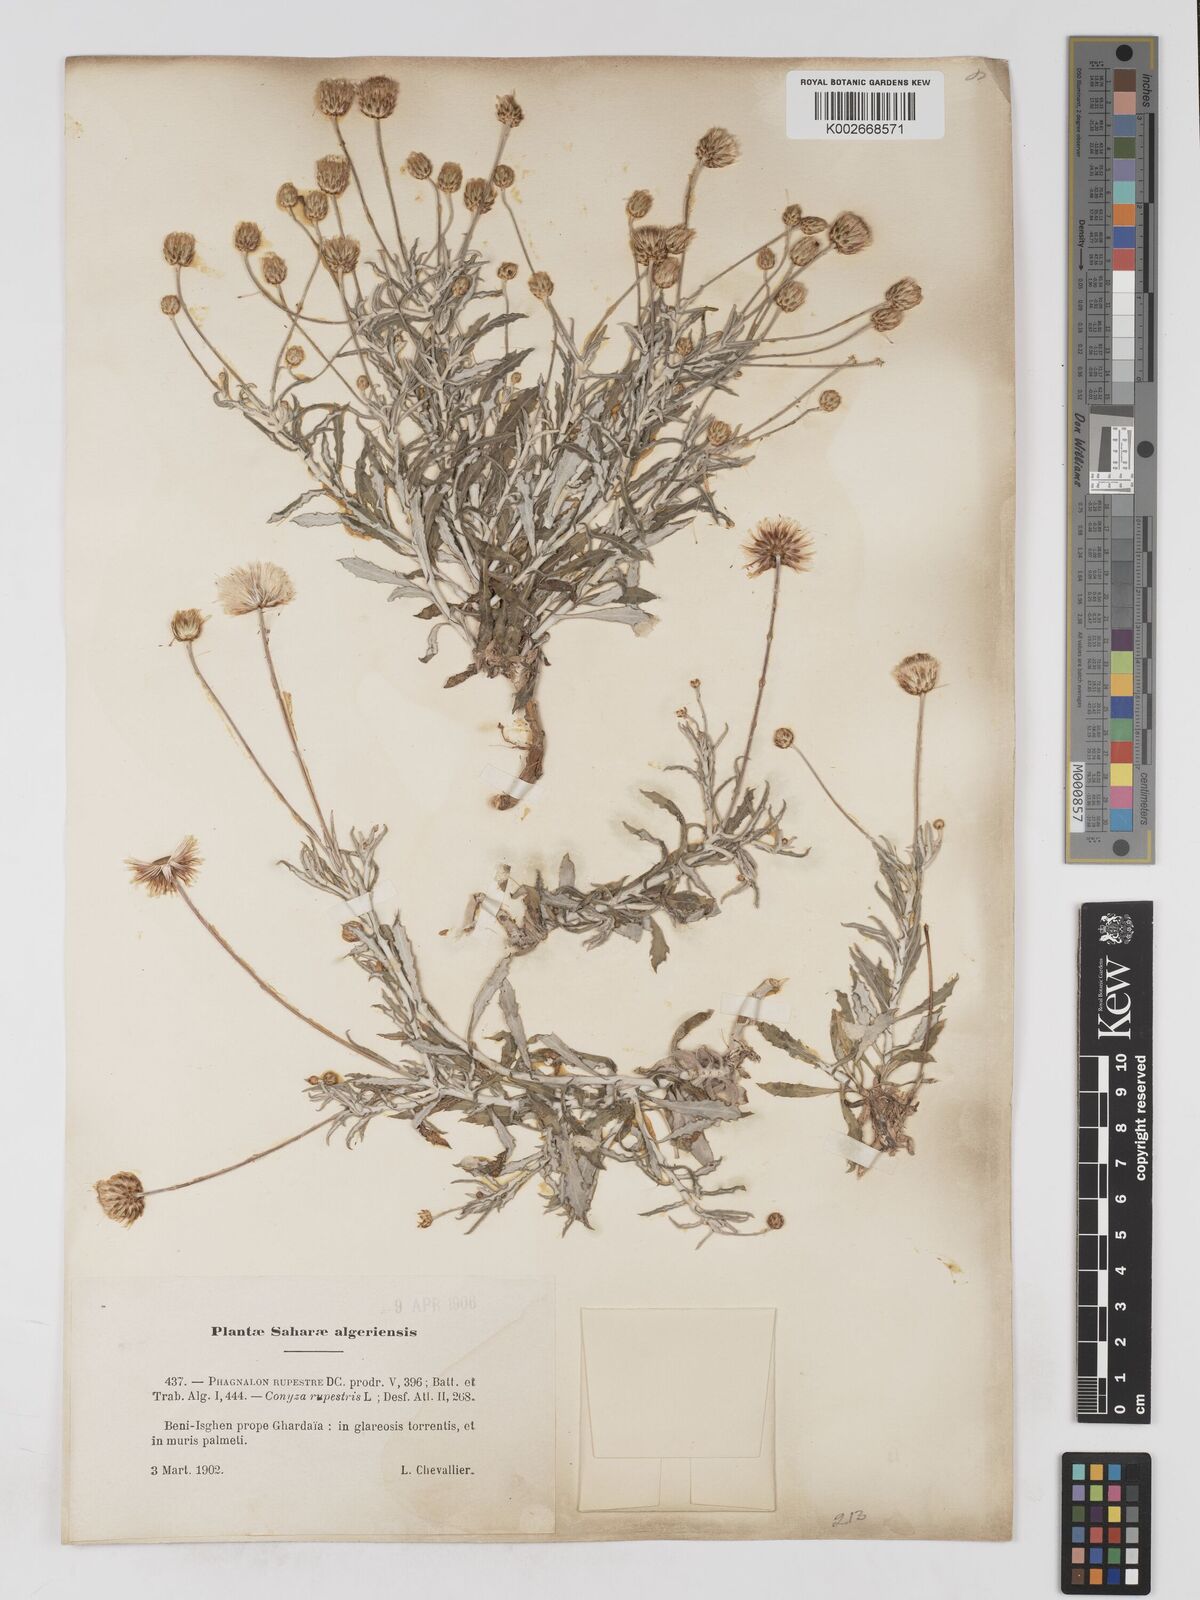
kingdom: Plantae
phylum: Tracheophyta
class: Magnoliopsida
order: Asterales
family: Asteraceae
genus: Phagnalon
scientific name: Phagnalon rupestre
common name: Rock phagnalon
